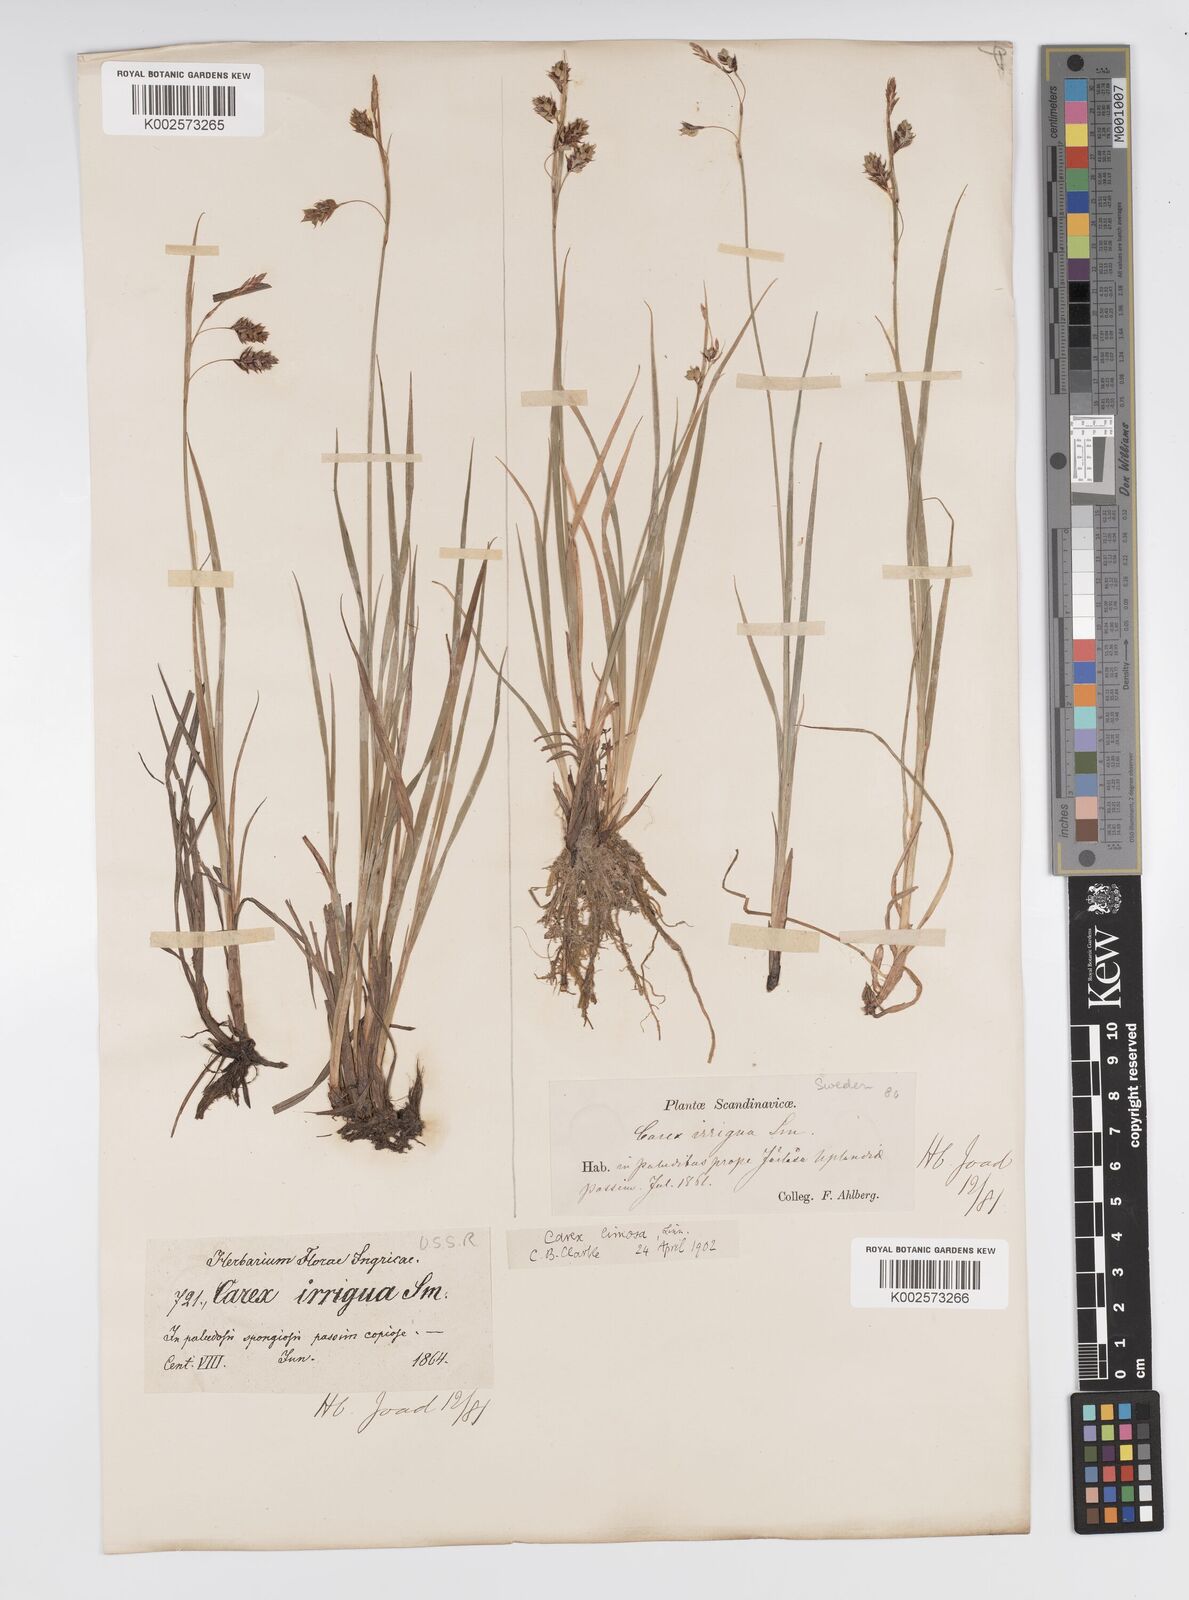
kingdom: Plantae
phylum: Tracheophyta
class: Liliopsida
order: Poales
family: Cyperaceae
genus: Carex
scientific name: Carex magellanica
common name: Bog sedge
